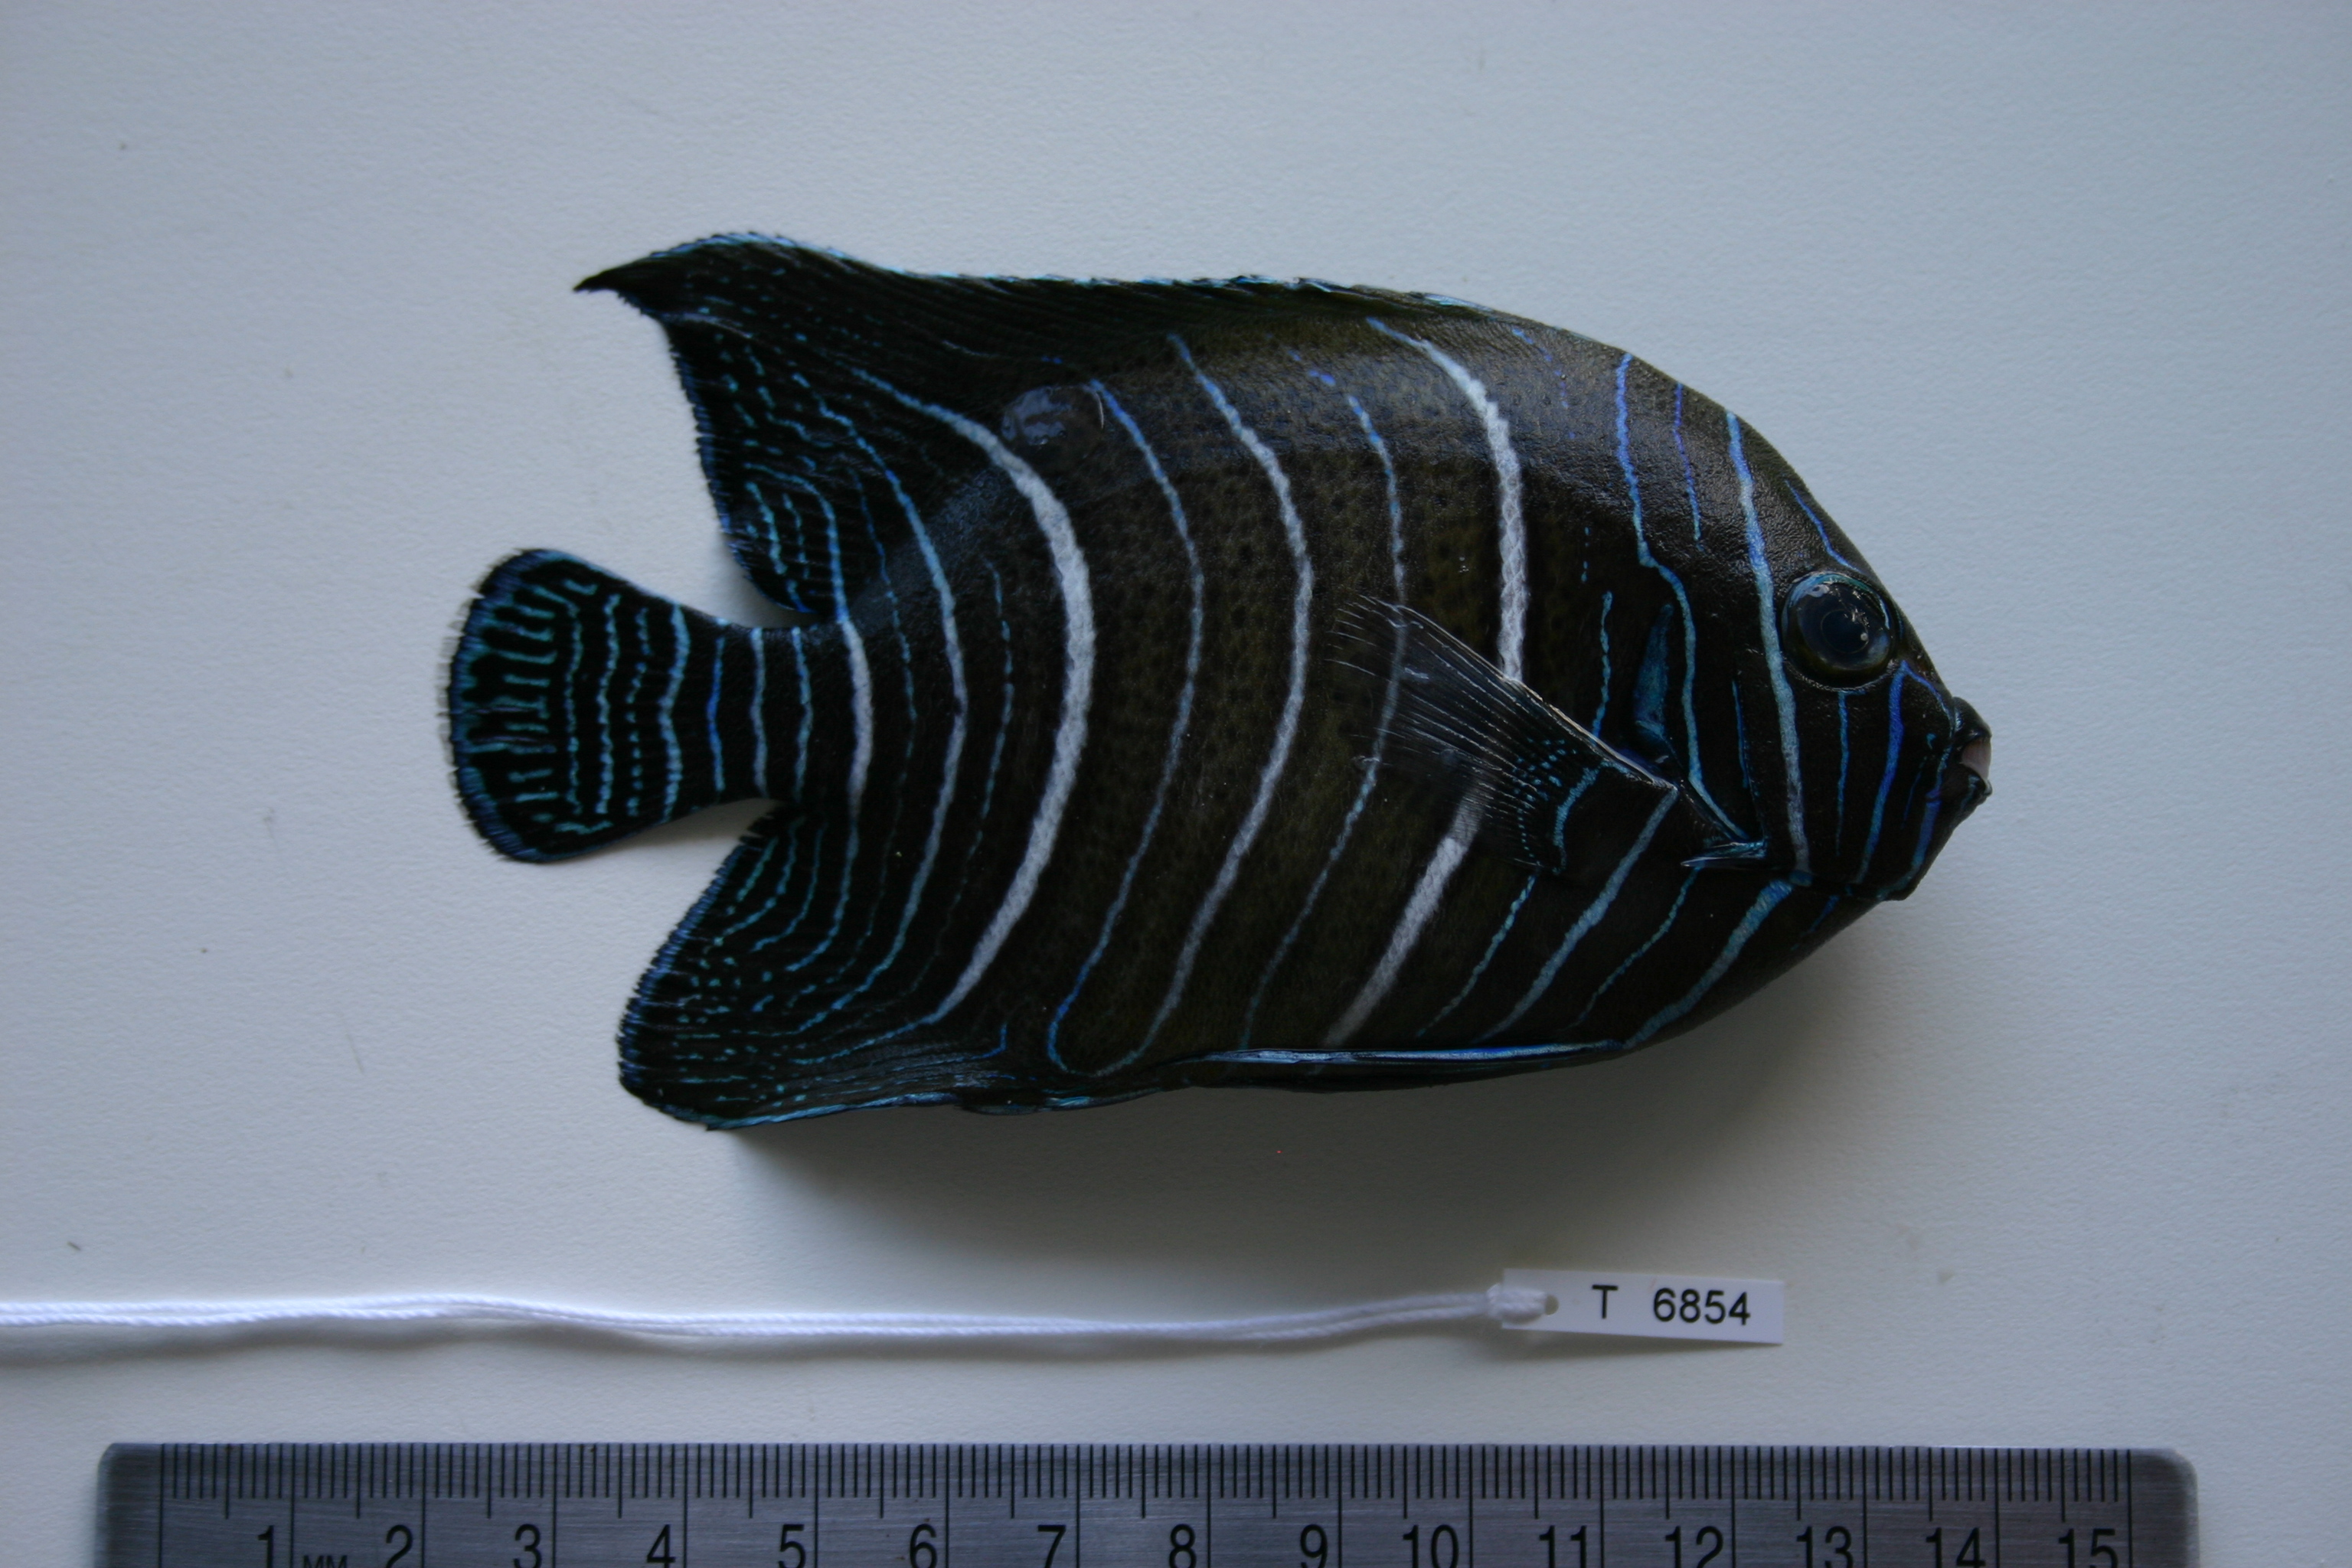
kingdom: Animalia
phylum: Chordata
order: Perciformes
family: Pomacanthidae
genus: Pomacanthus
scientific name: Pomacanthus semicirculatus
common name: Semicircle angelfish
